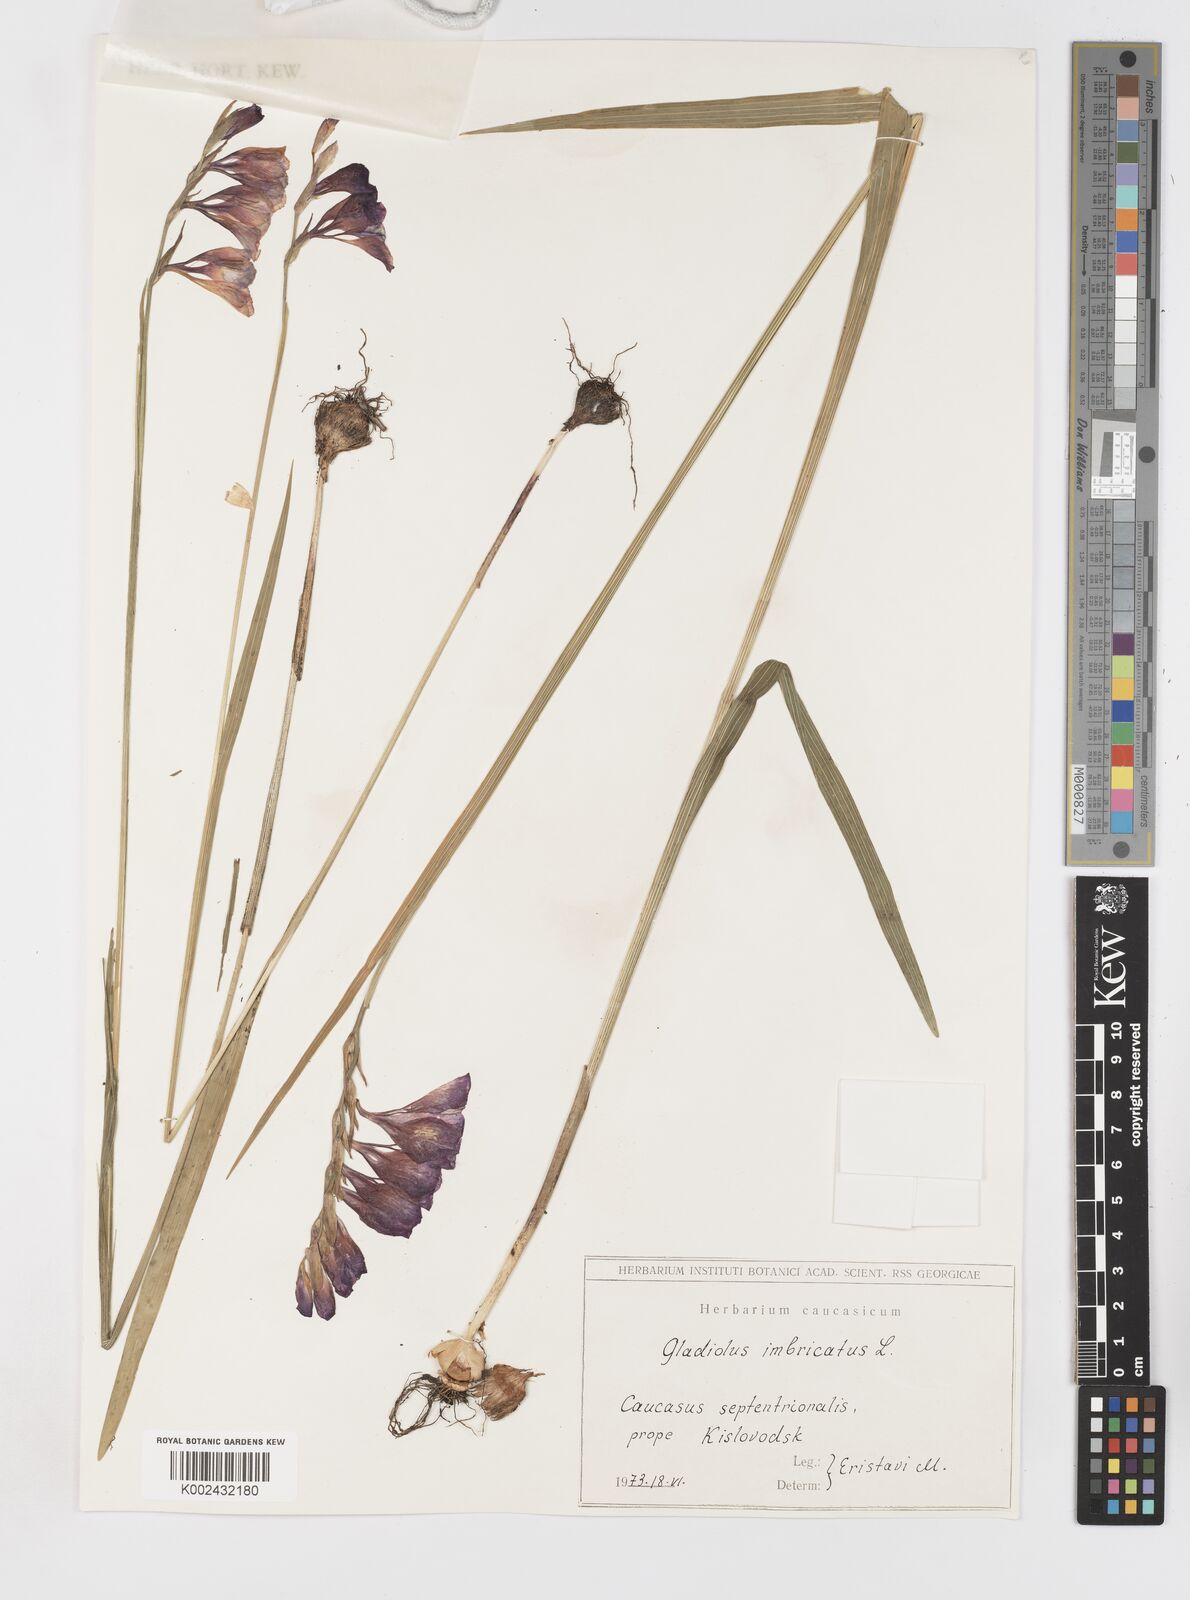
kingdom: Plantae
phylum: Tracheophyta
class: Liliopsida
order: Asparagales
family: Iridaceae
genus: Gladiolus
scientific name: Gladiolus imbricatus
